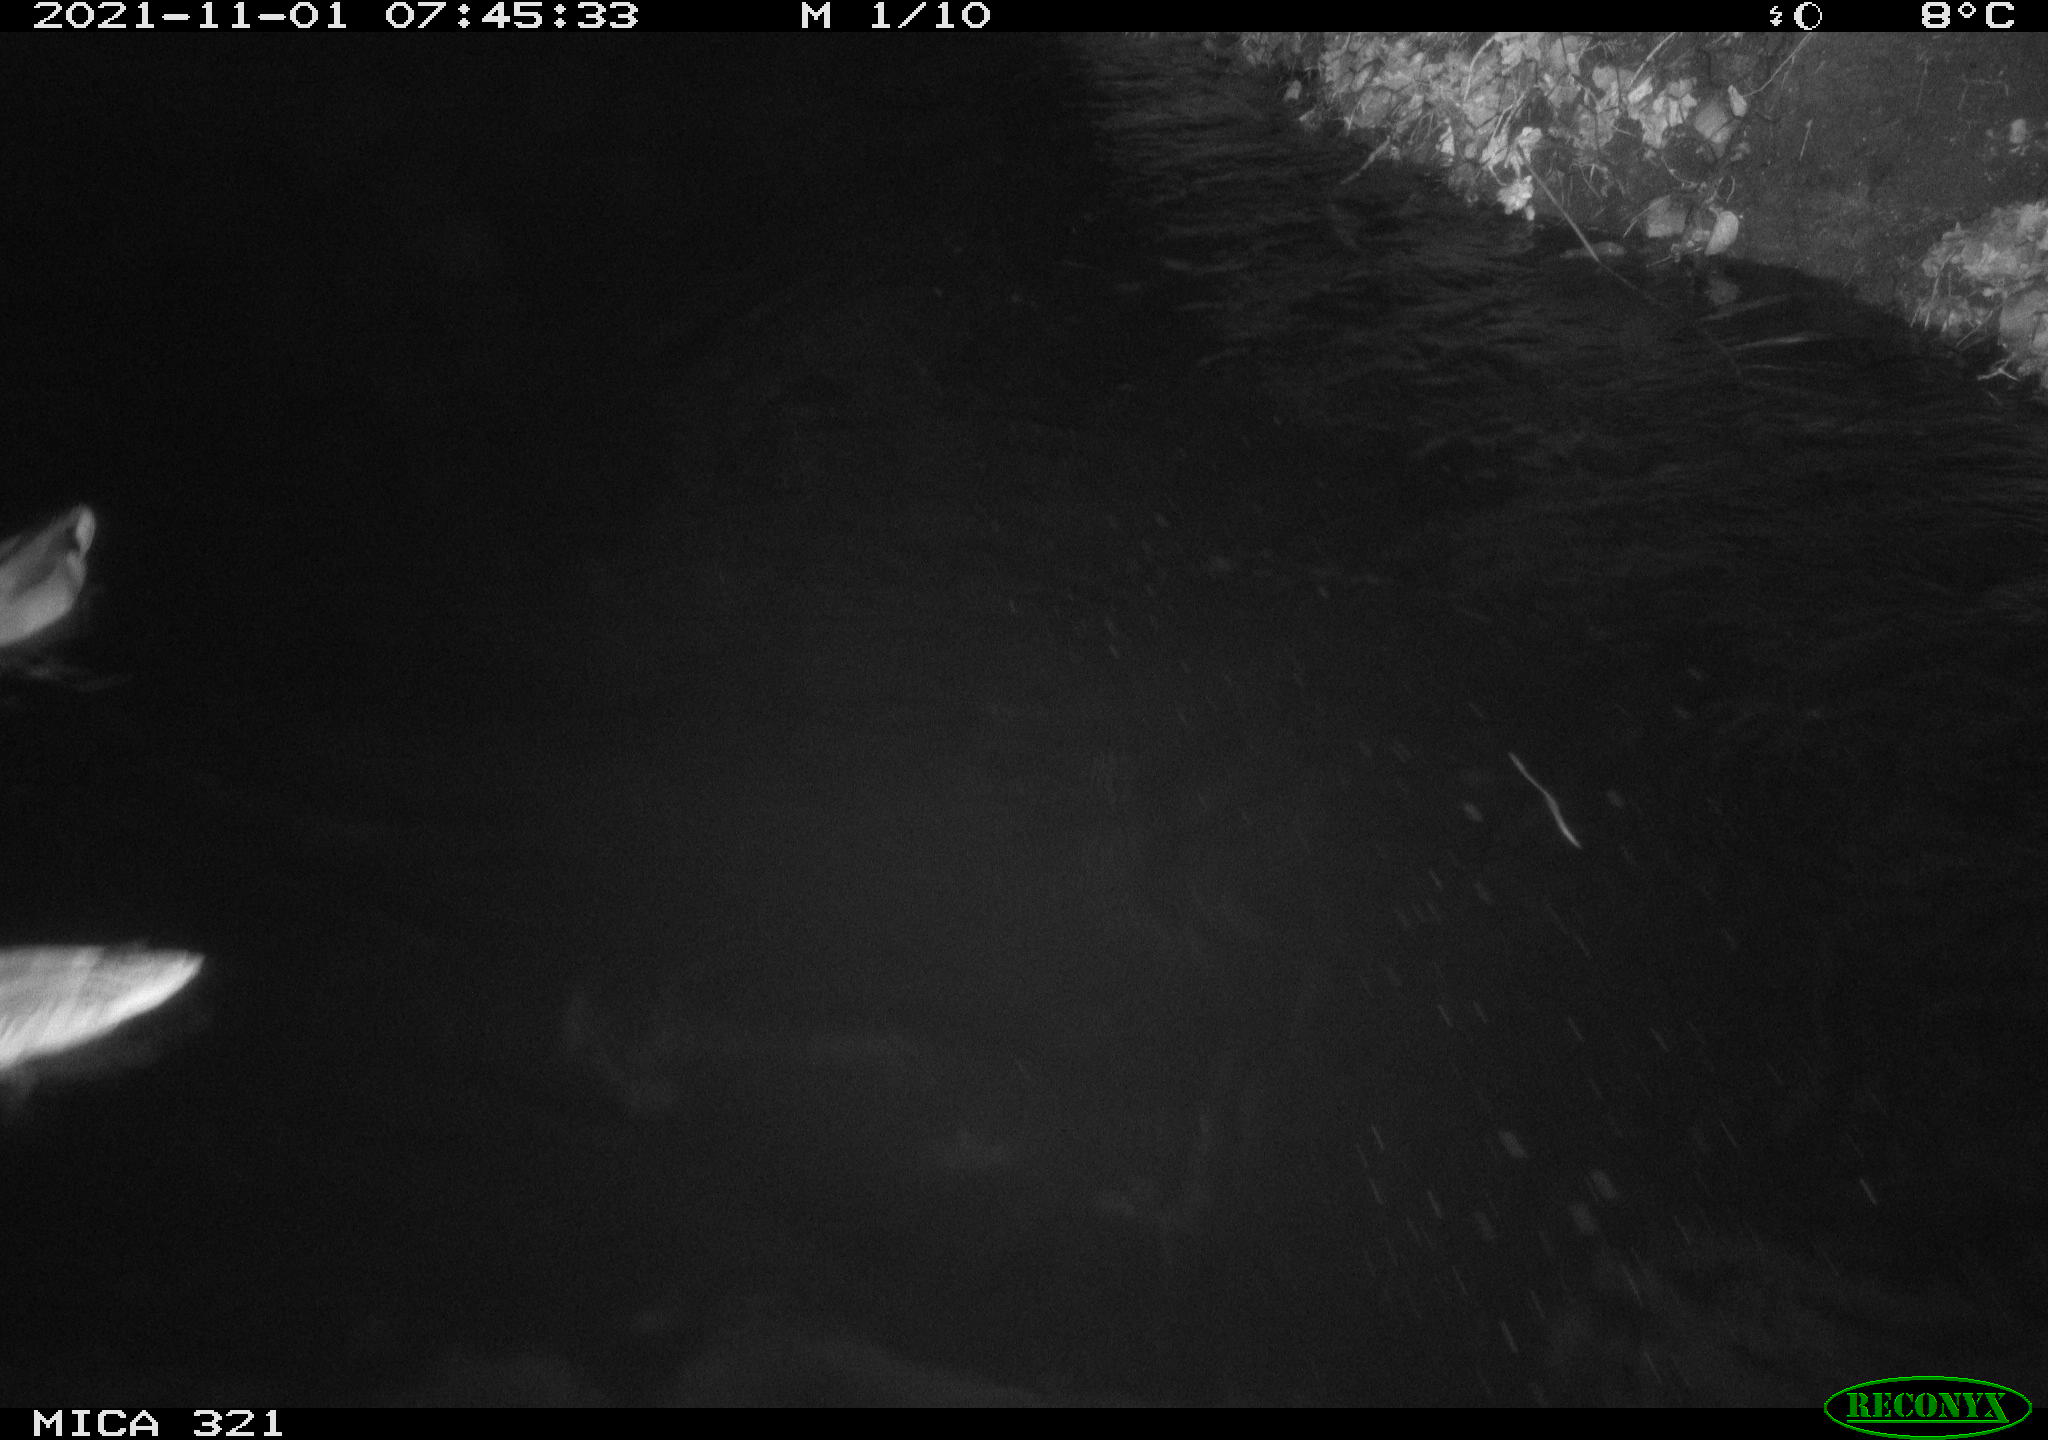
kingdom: Animalia
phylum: Chordata
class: Aves
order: Anseriformes
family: Anatidae
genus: Anas
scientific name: Anas platyrhynchos
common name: Mallard
